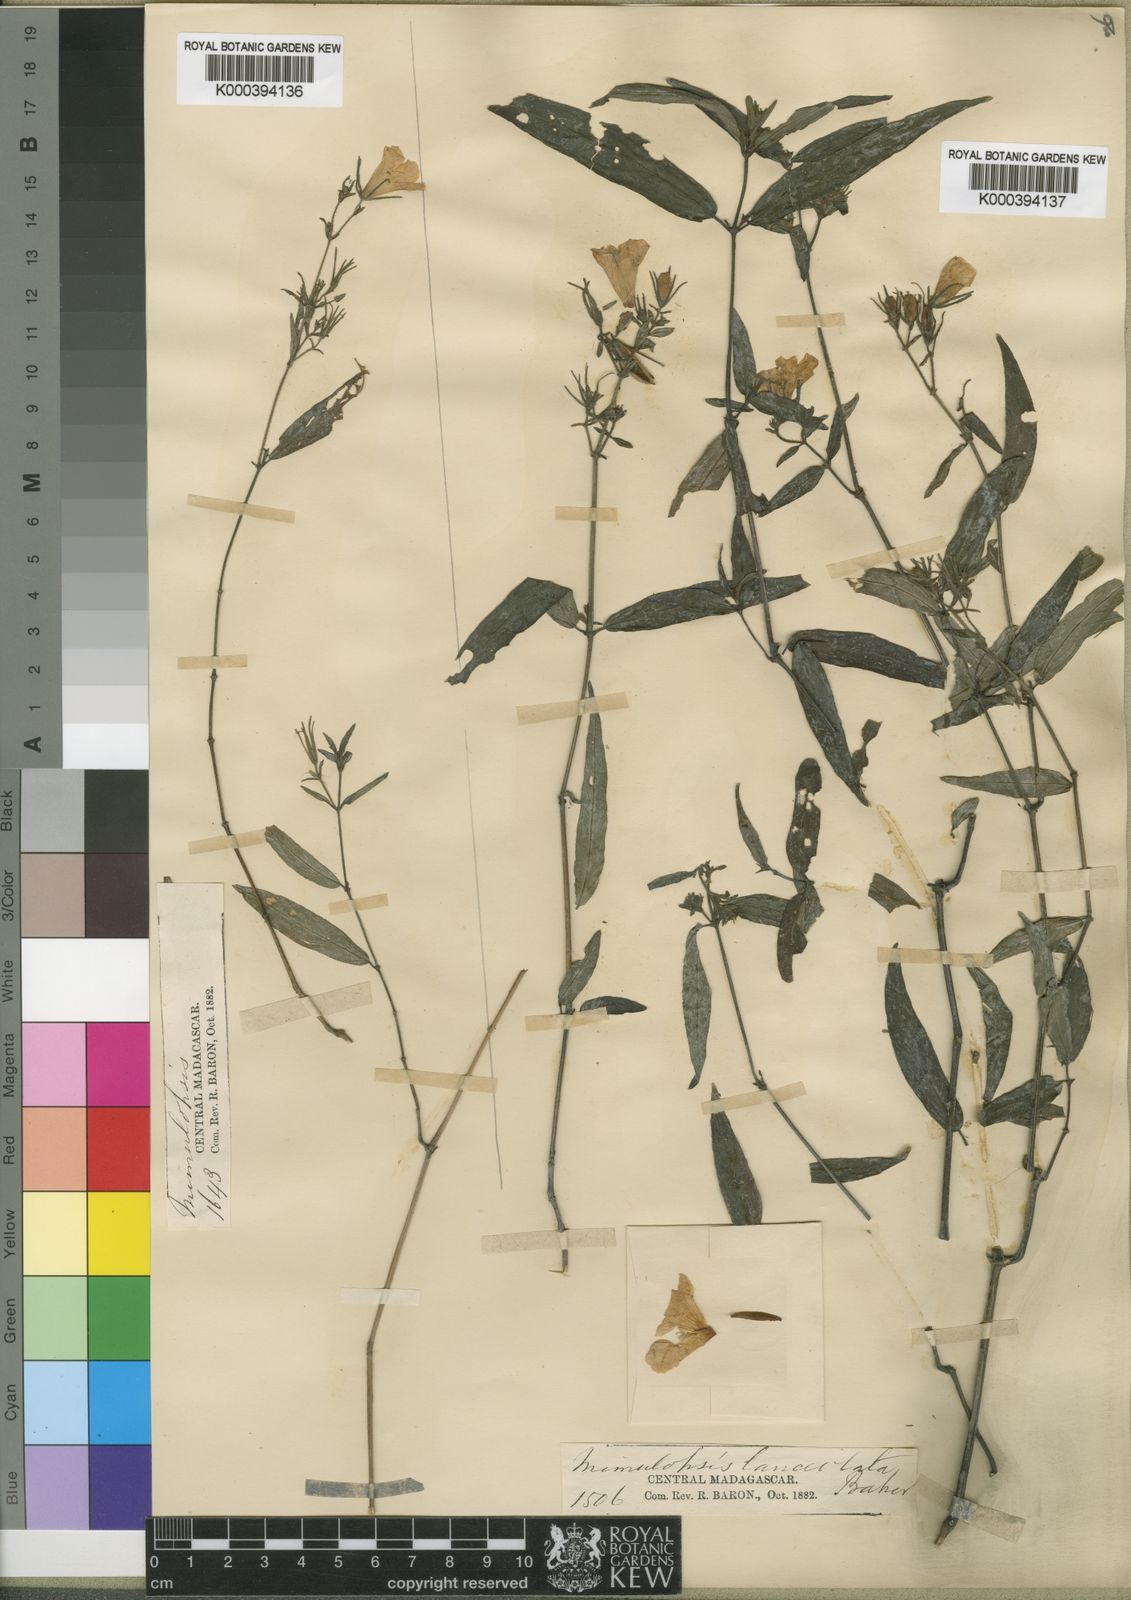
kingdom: Plantae
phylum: Tracheophyta
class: Magnoliopsida
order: Lamiales
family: Acanthaceae
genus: Mimulopsis
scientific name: Mimulopsis
